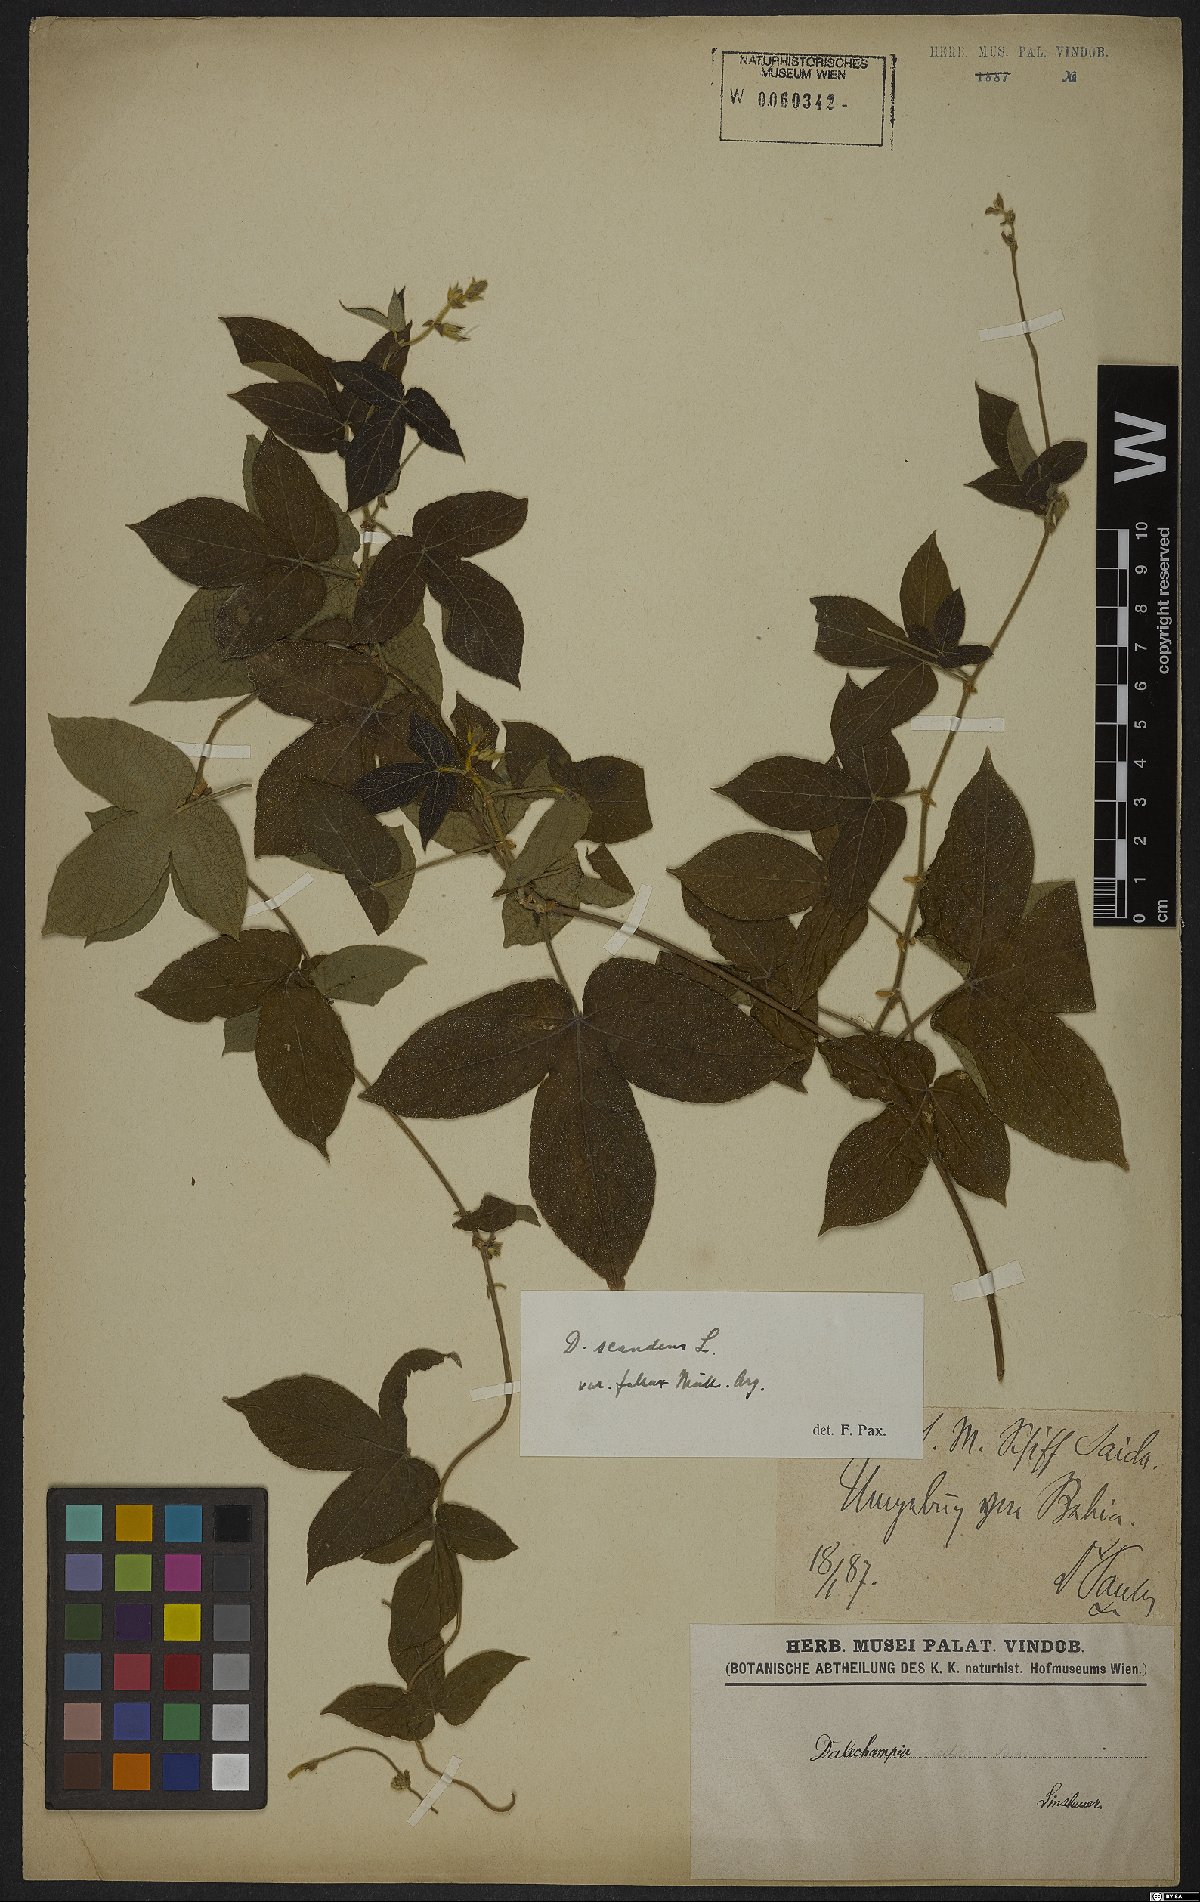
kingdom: Plantae
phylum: Tracheophyta
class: Magnoliopsida
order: Malpighiales
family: Euphorbiaceae
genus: Dalechampia
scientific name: Dalechampia scandens
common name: Spurgecreeper
